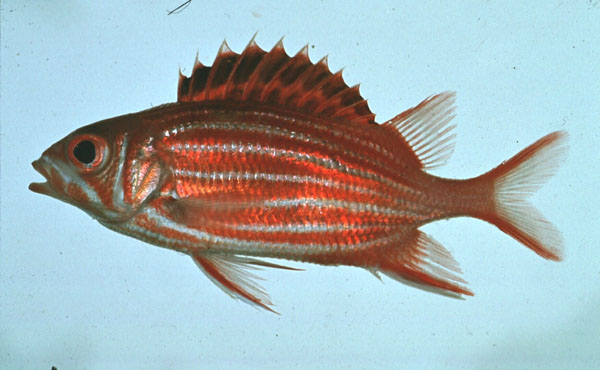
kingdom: Animalia
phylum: Chordata
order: Beryciformes
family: Holocentridae
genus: Sargocentron
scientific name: Sargocentron diadema
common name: Crown squirrelfish
